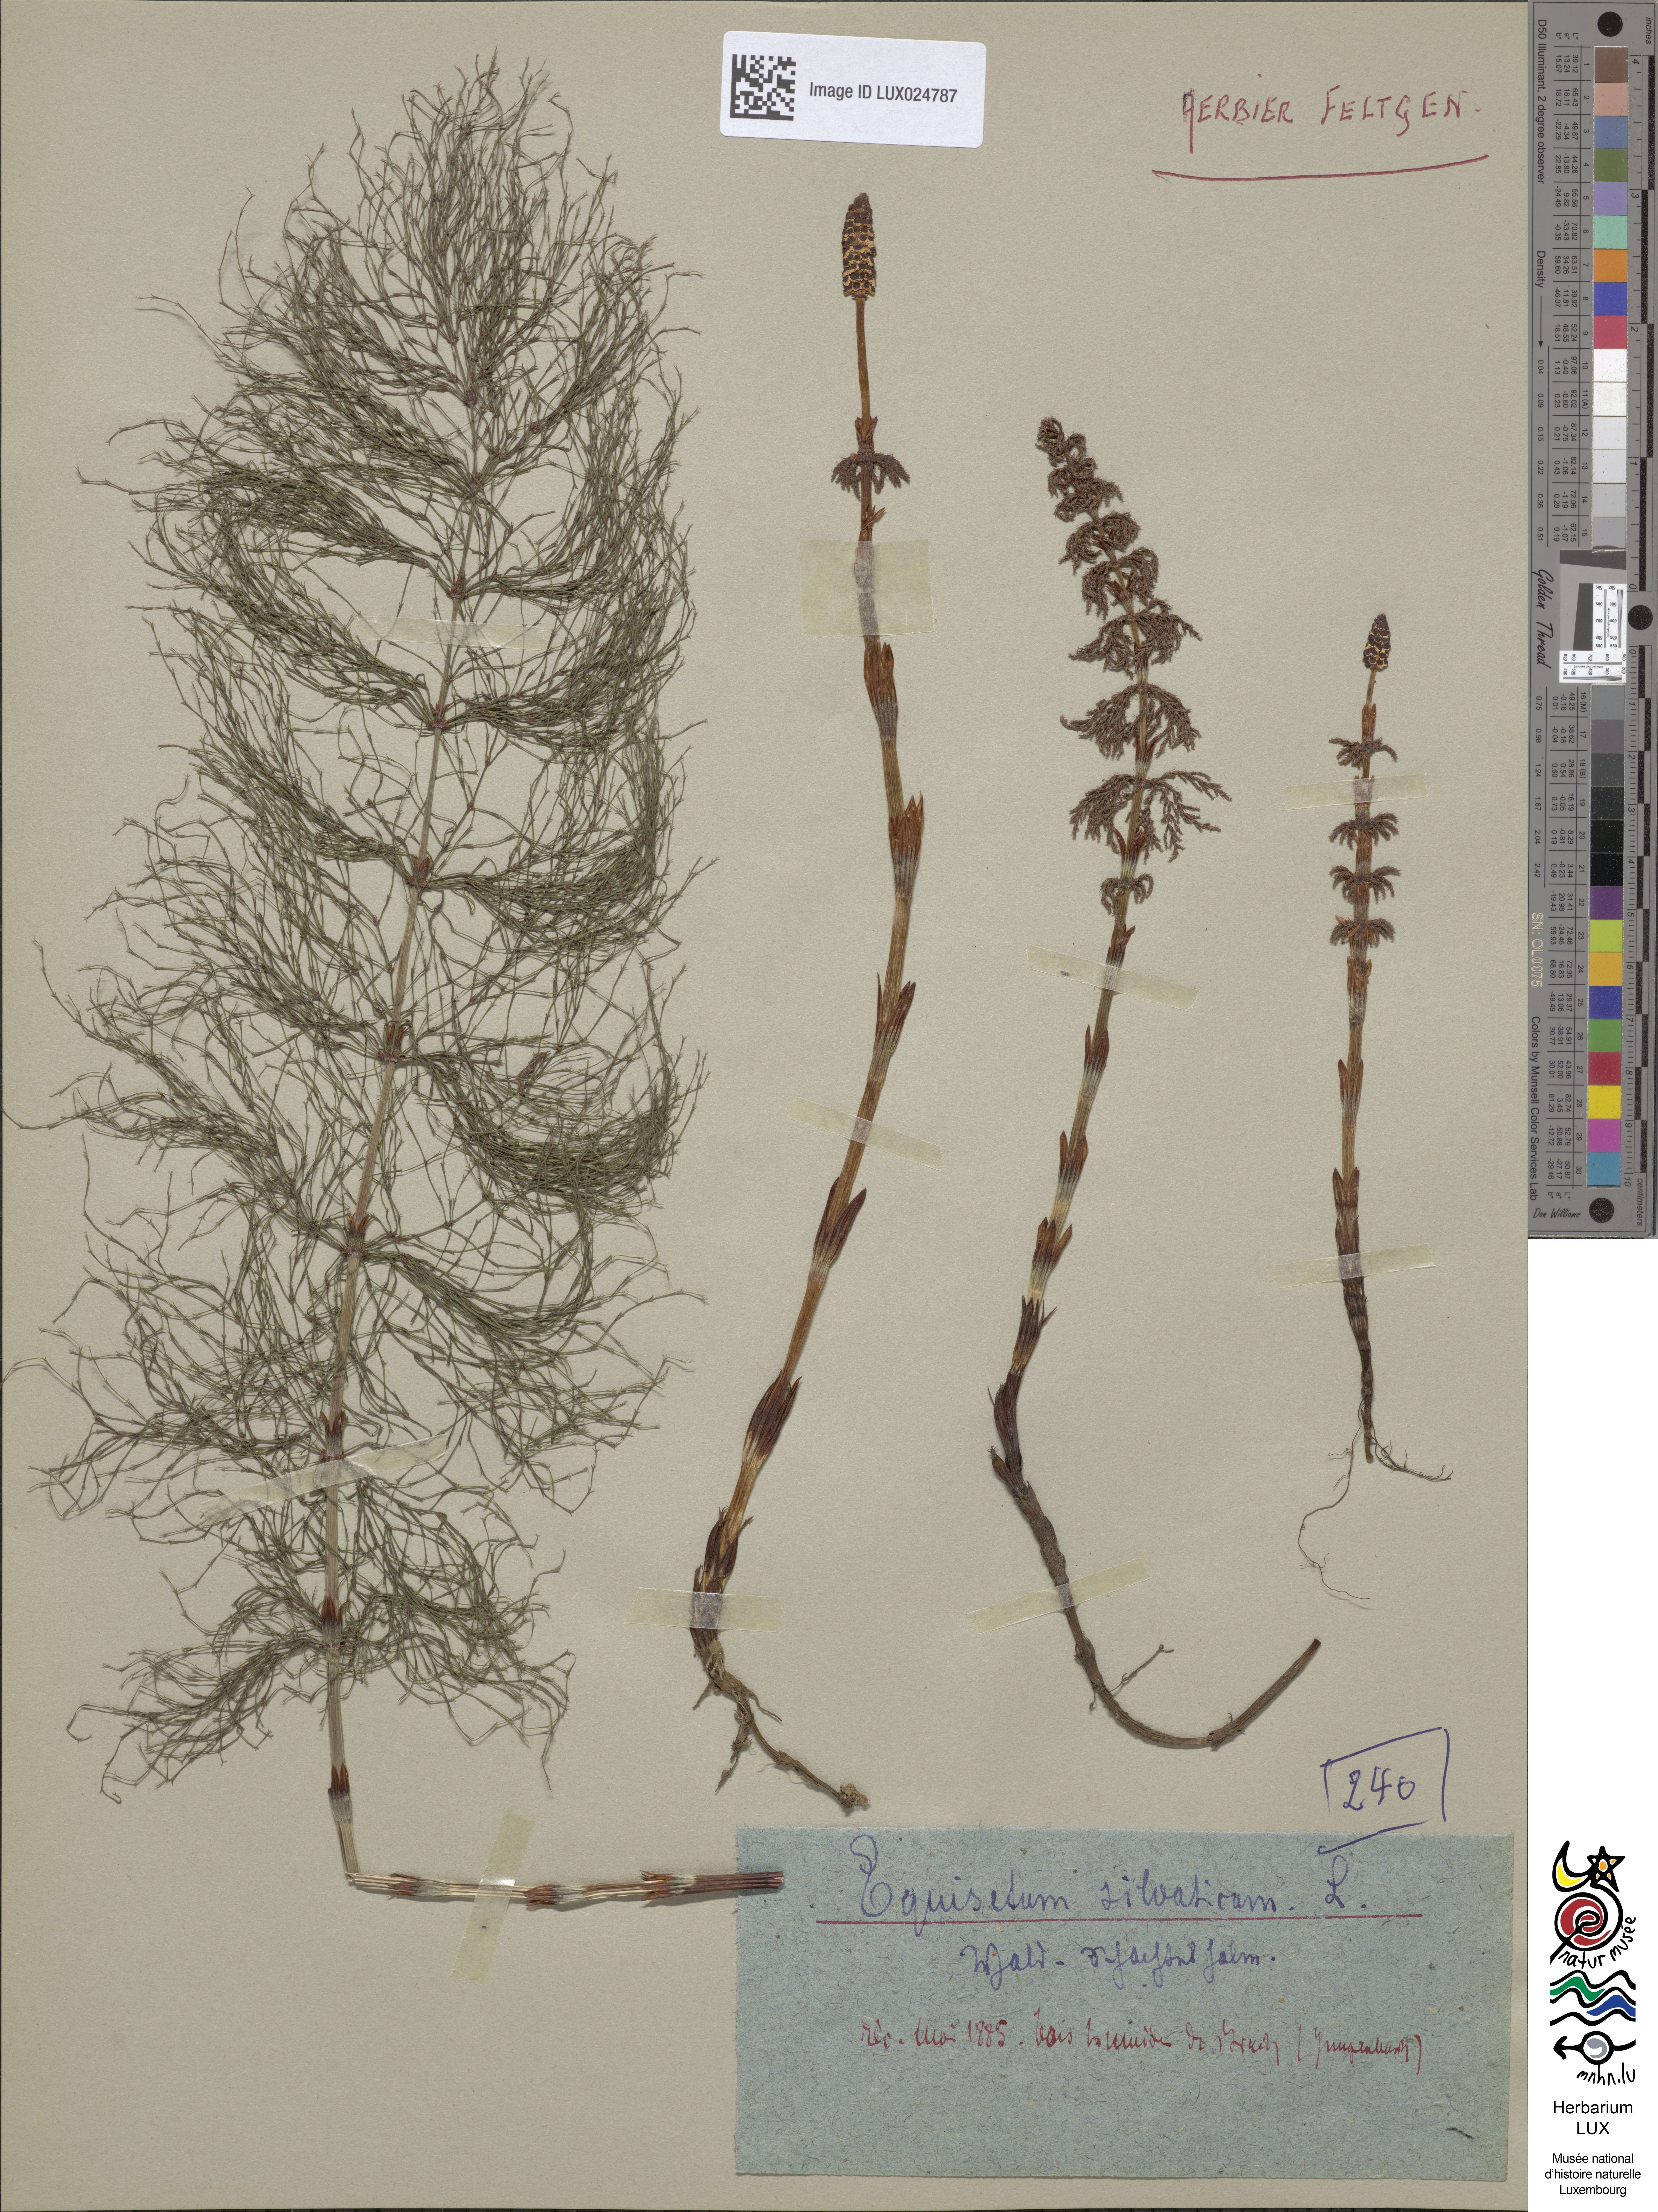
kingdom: Plantae
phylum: Tracheophyta
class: Polypodiopsida
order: Equisetales
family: Equisetaceae
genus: Equisetum
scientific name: Equisetum sylvaticum
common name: Wood horsetail
